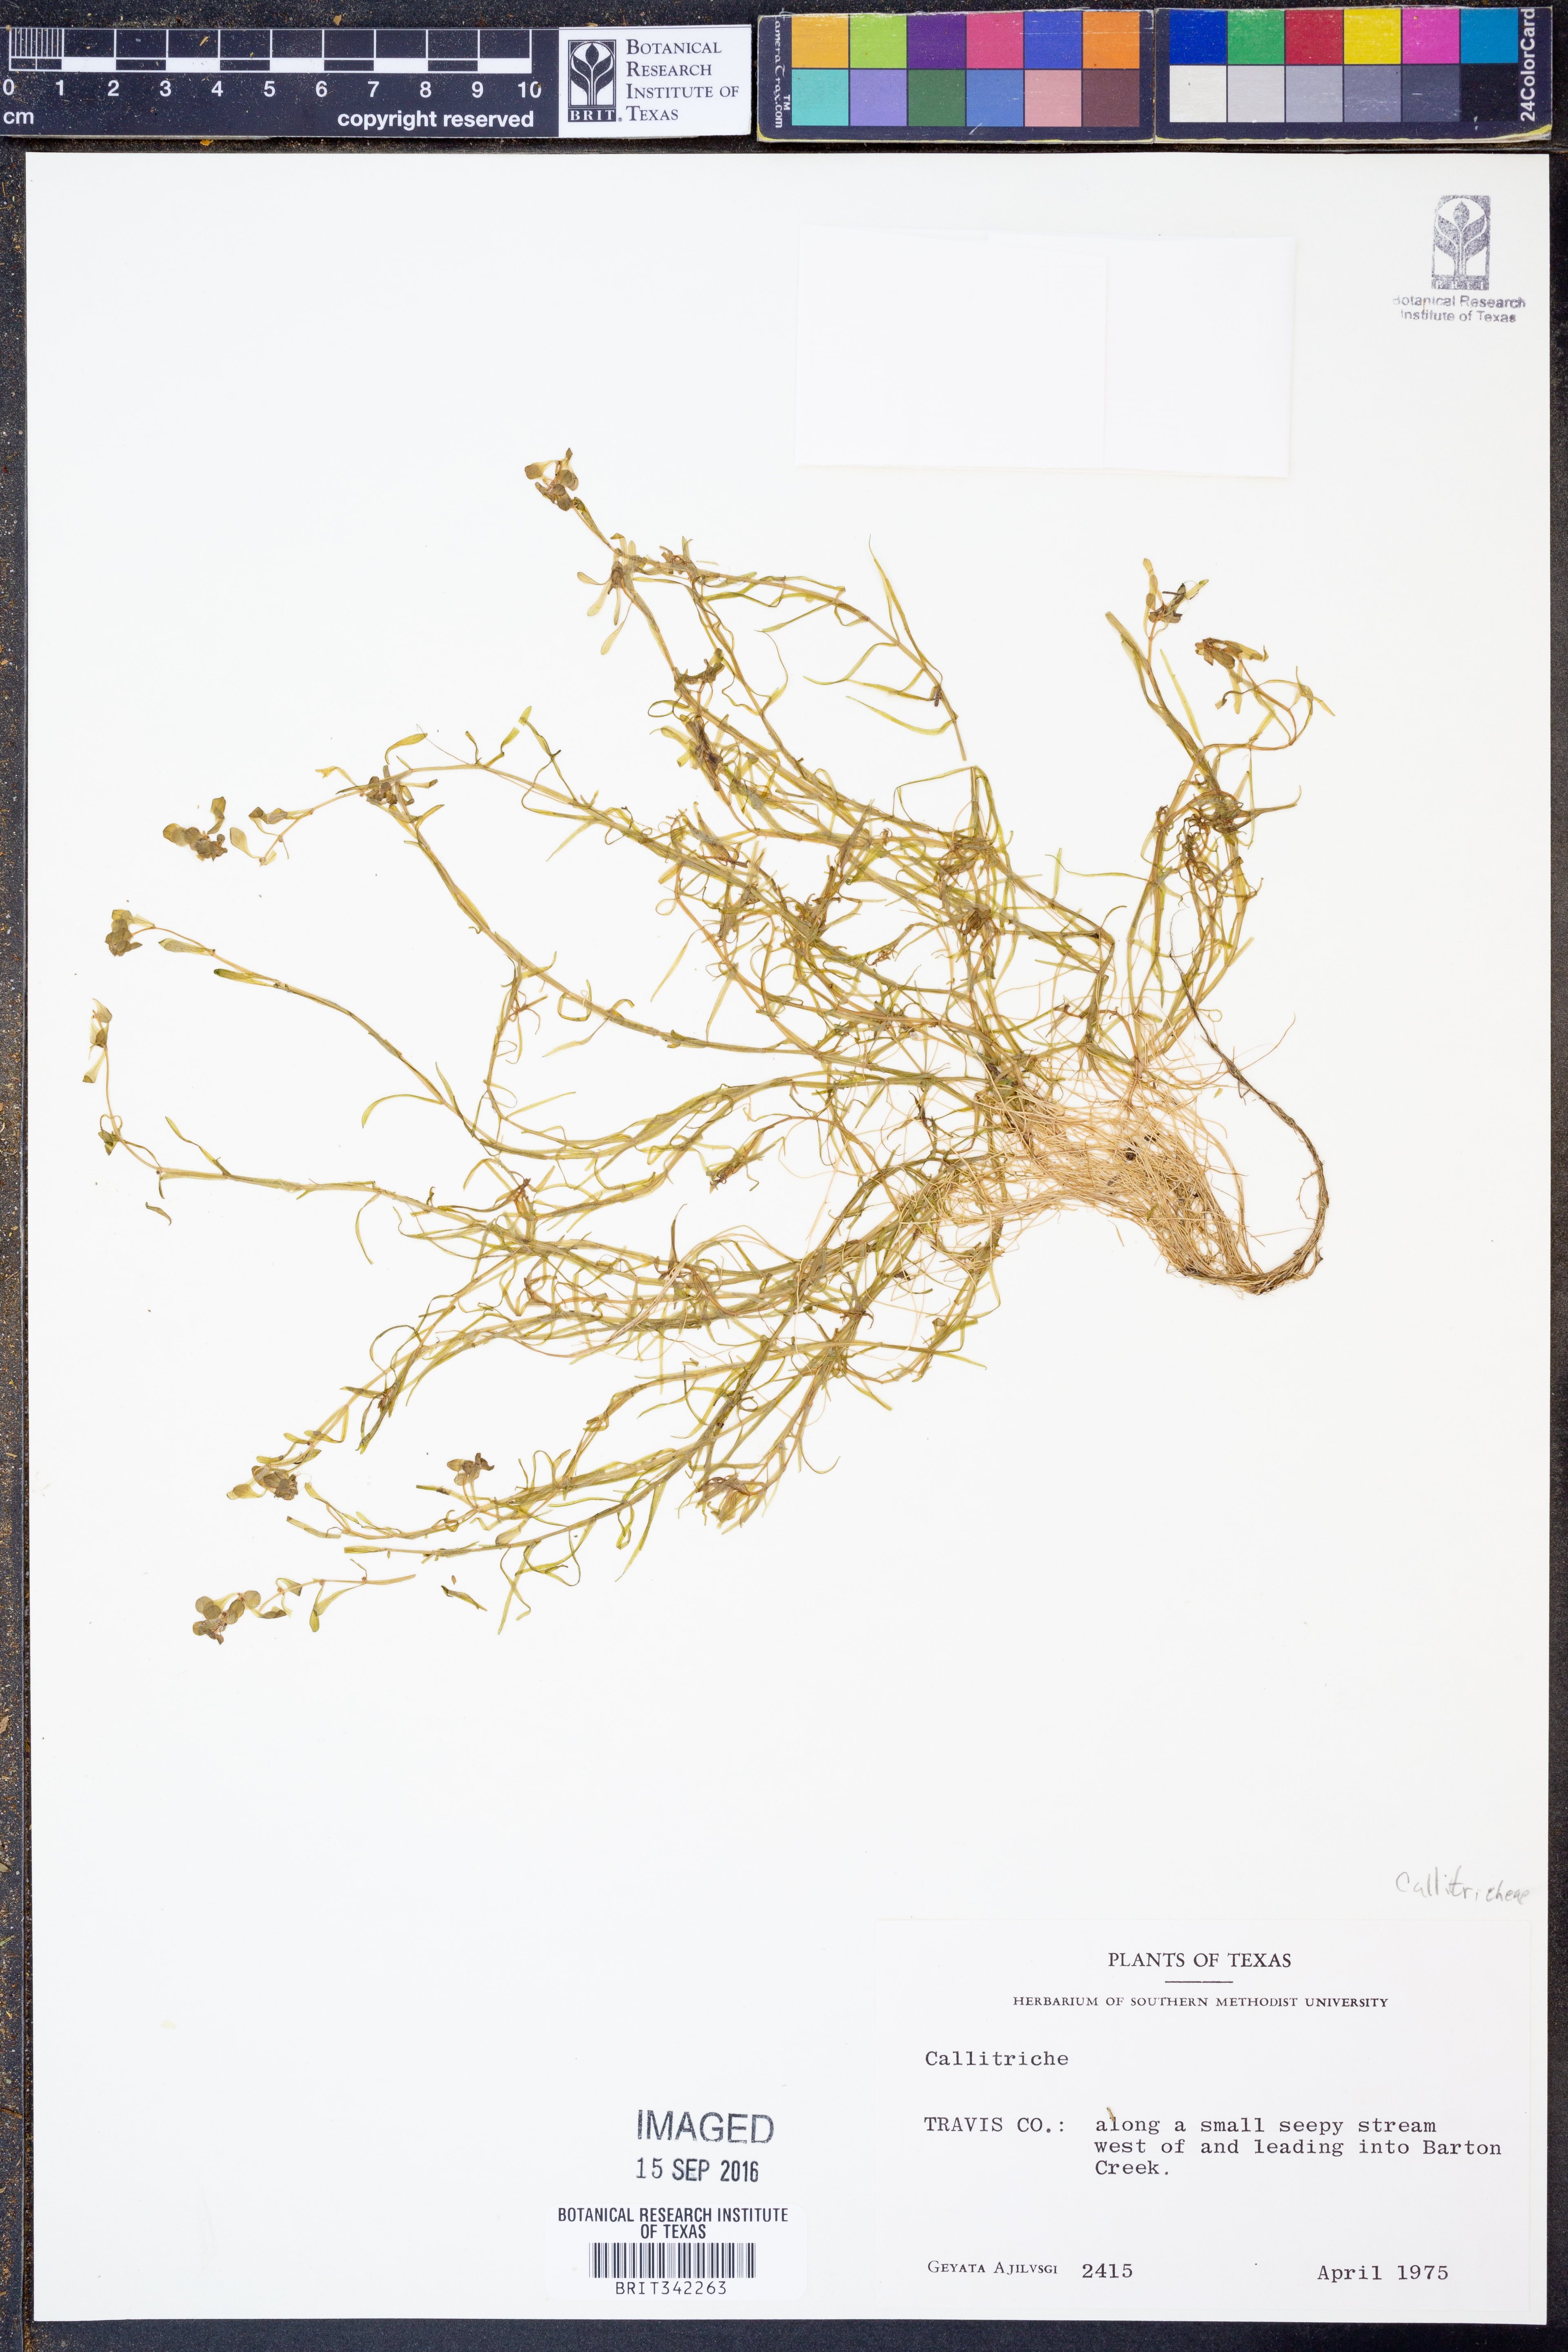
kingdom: Plantae
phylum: Tracheophyta
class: Magnoliopsida
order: Lamiales
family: Plantaginaceae
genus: Callitriche
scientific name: Callitriche
